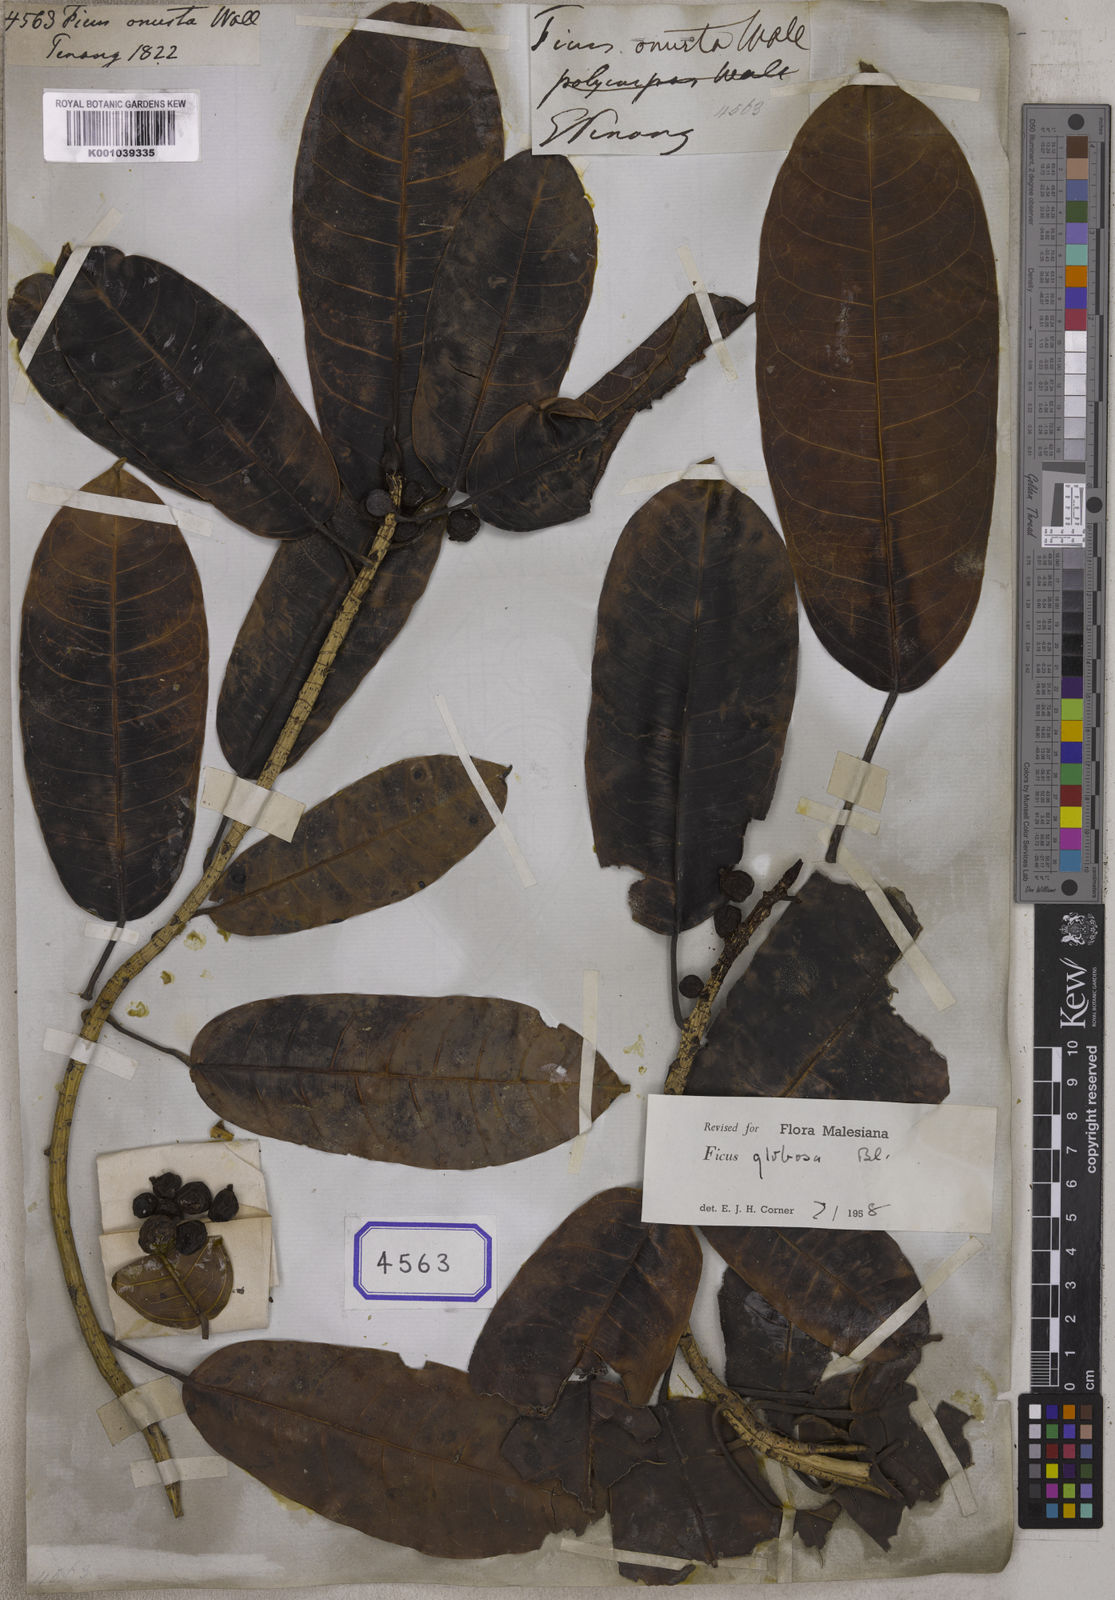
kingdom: Plantae
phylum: Tracheophyta
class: Magnoliopsida
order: Rosales
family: Moraceae
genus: Ficus
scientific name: Ficus
